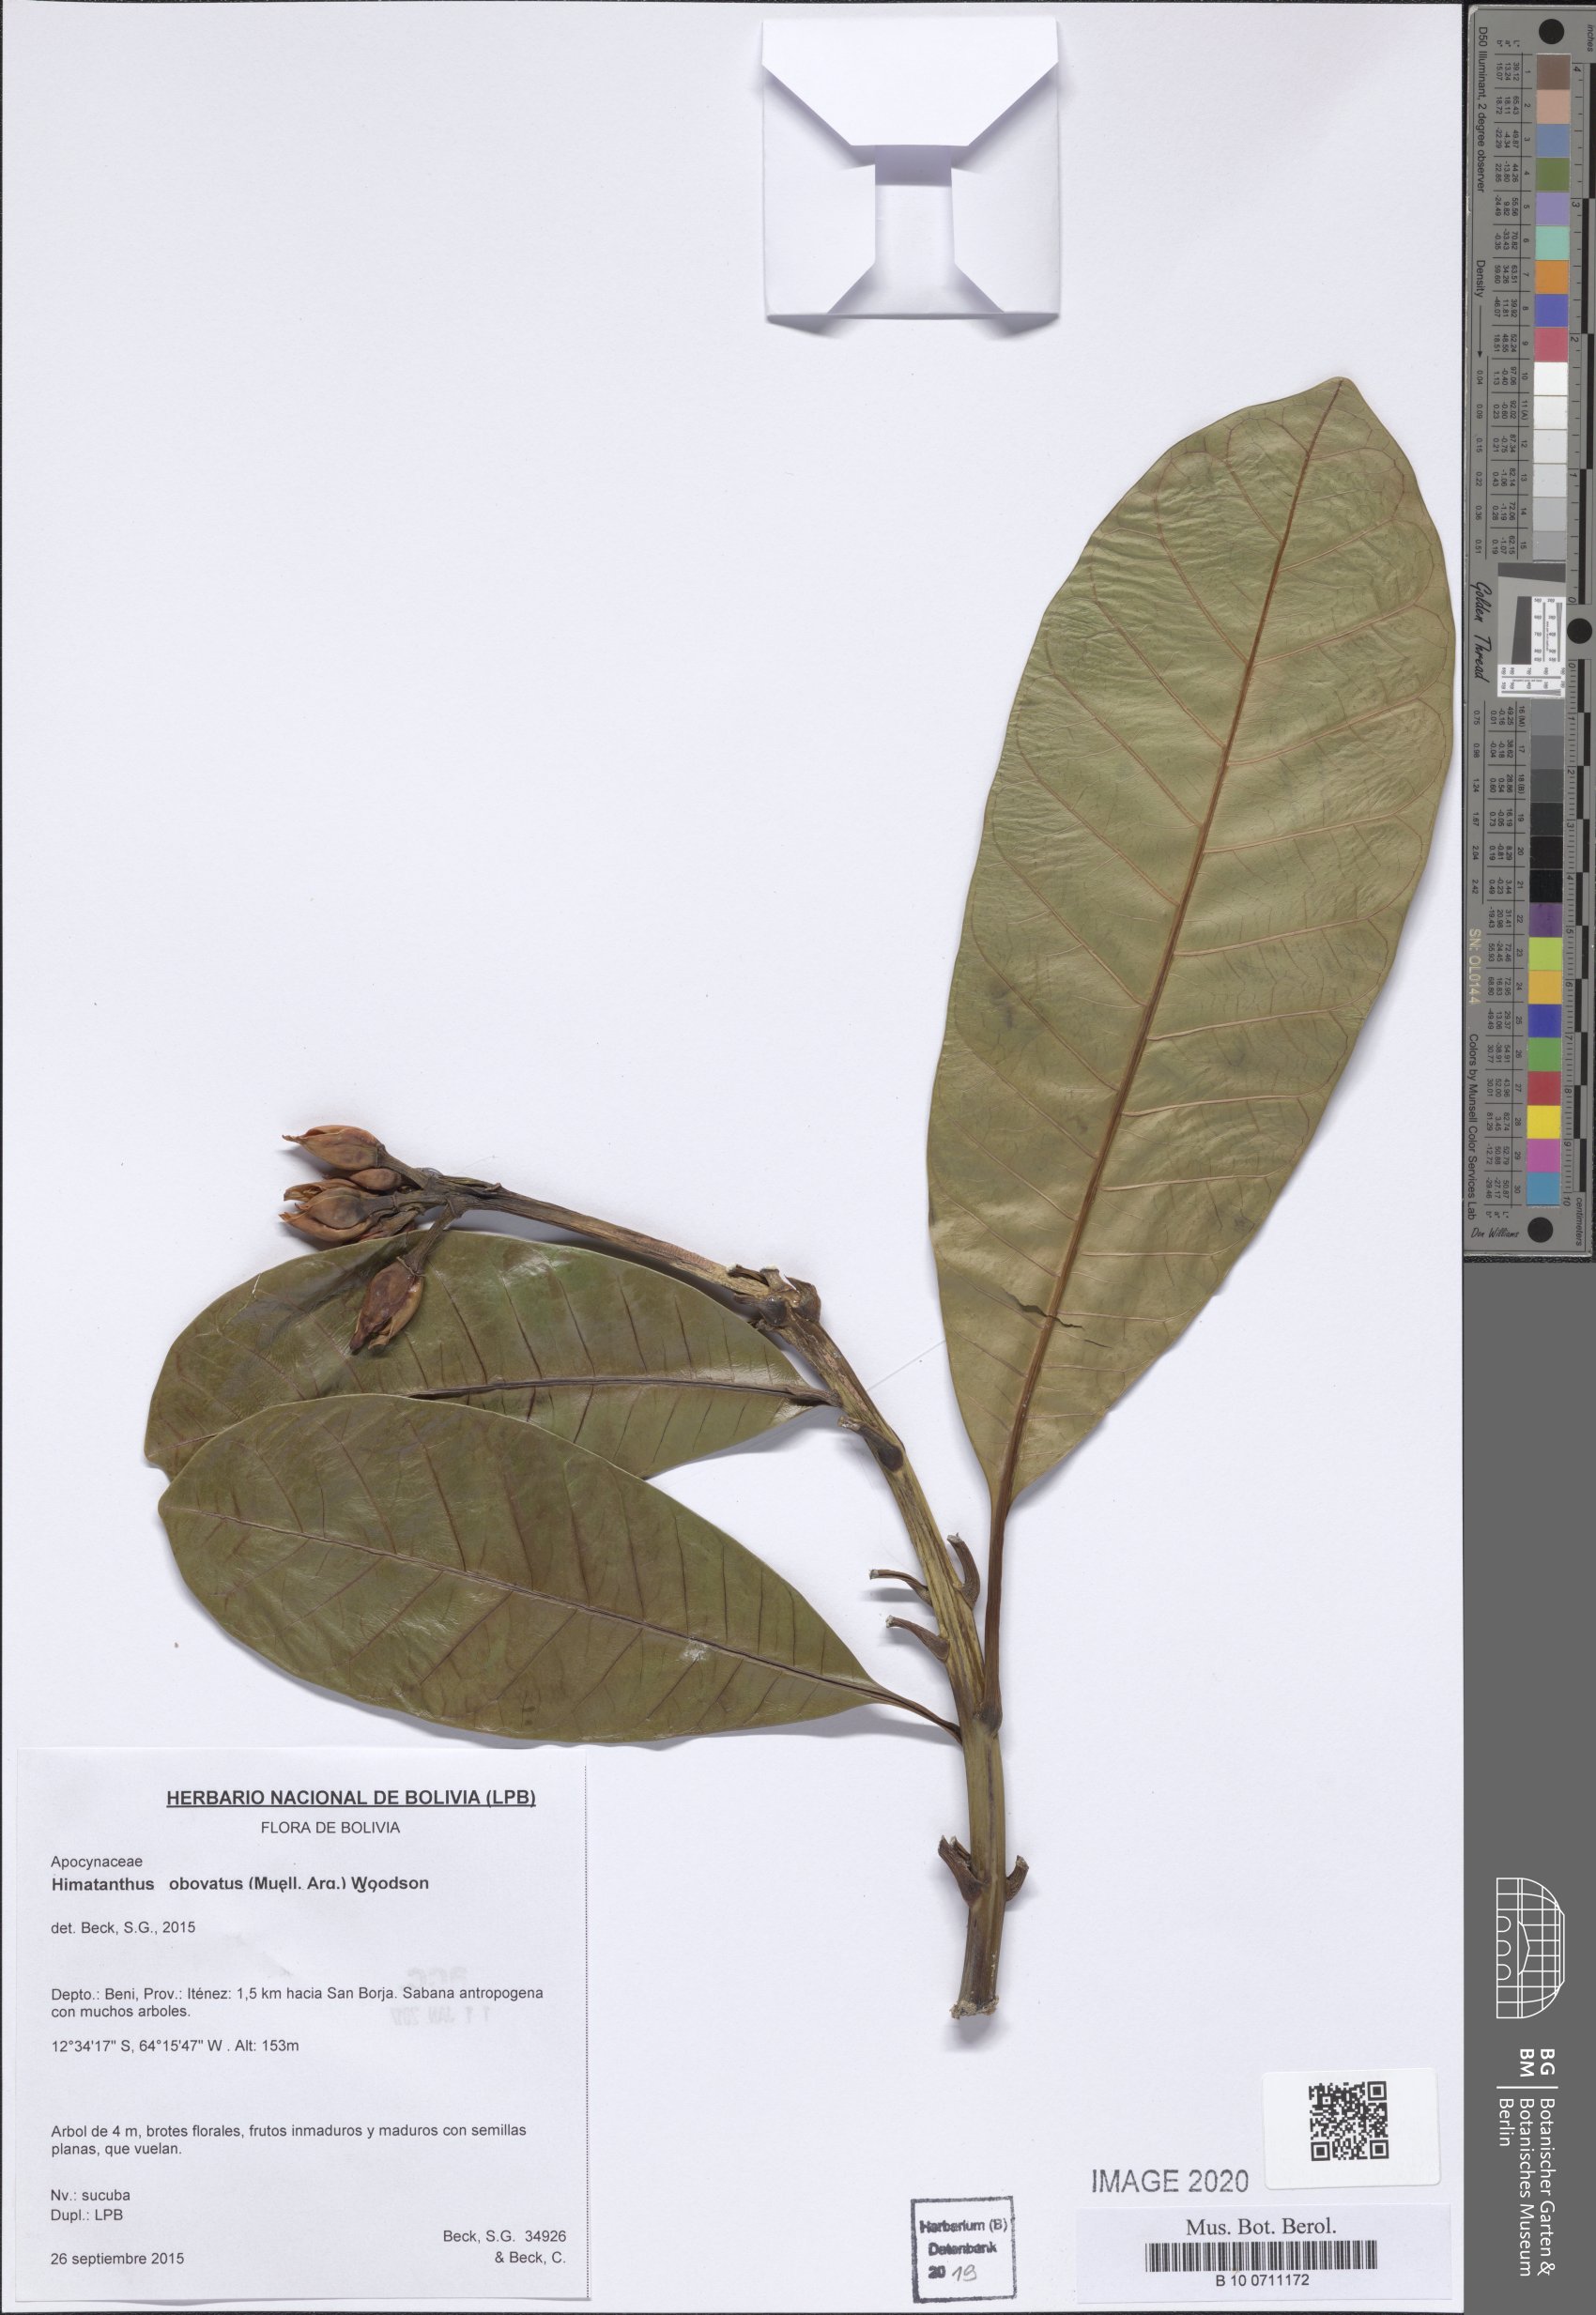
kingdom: Plantae
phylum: Tracheophyta
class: Magnoliopsida
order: Gentianales
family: Apocynaceae
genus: Himatanthus
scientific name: Himatanthus obovatus
